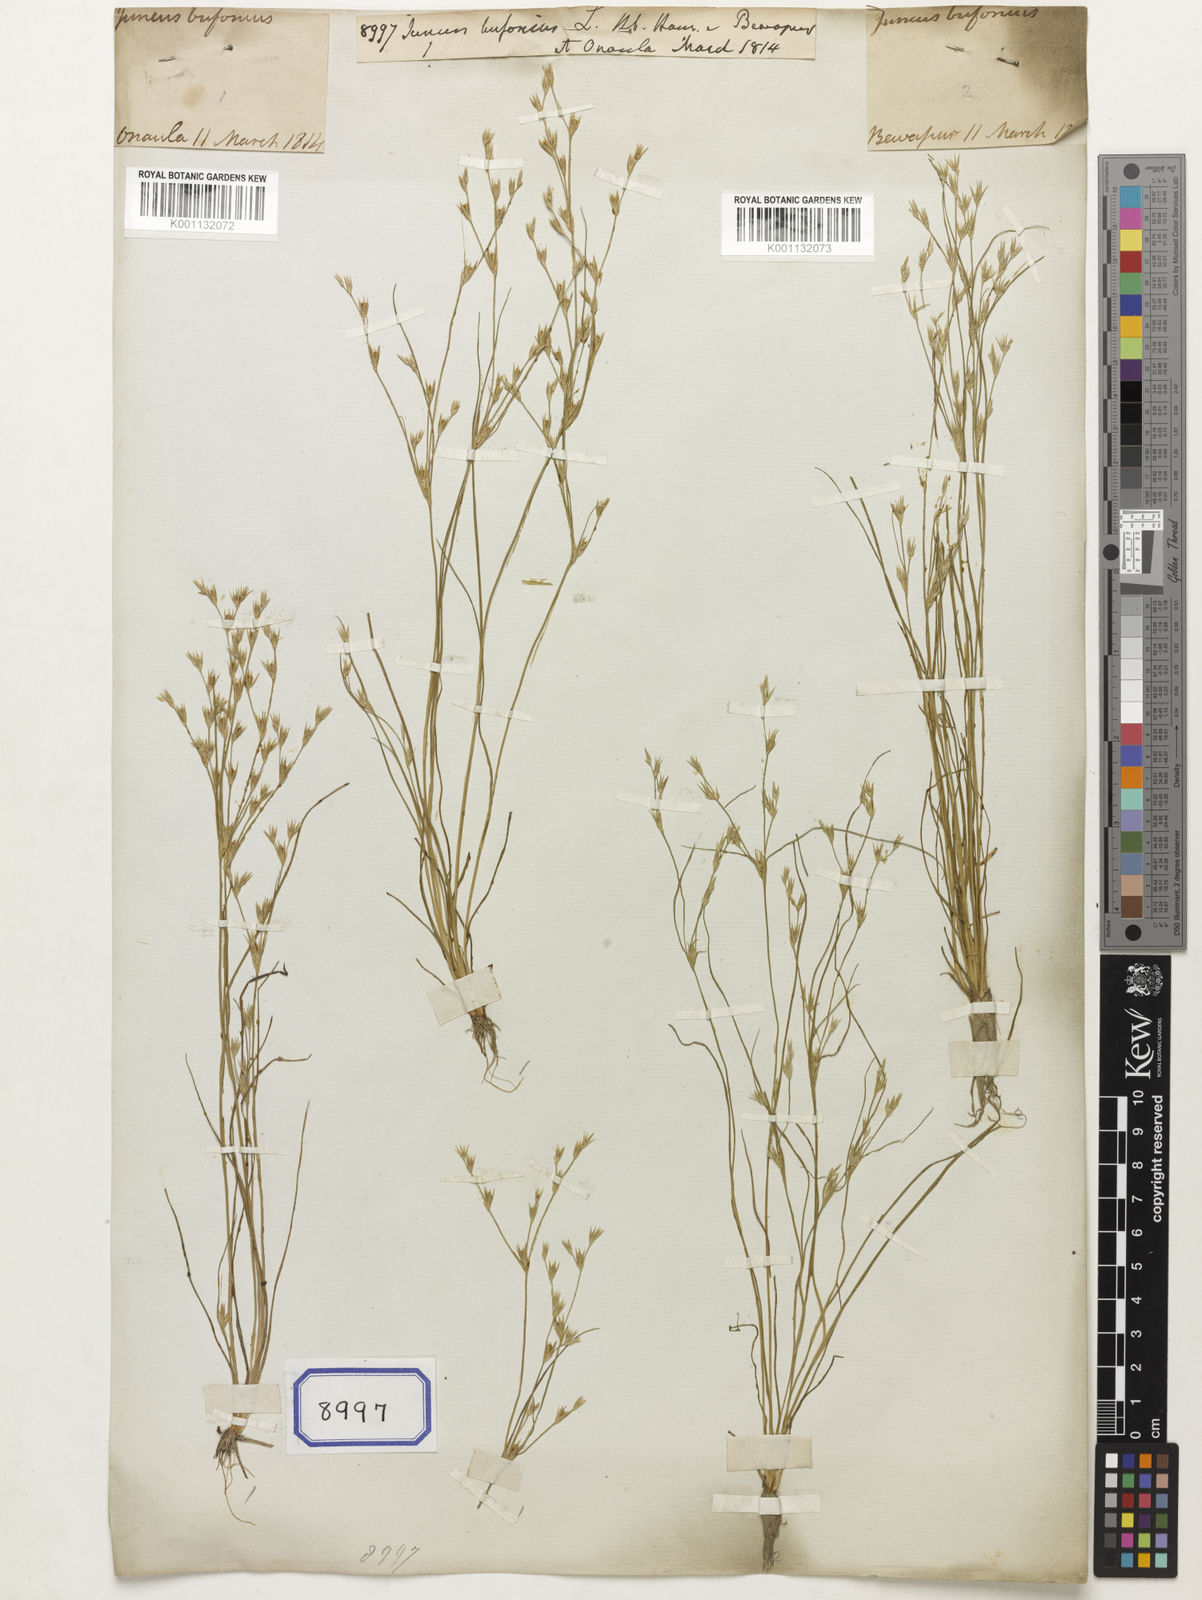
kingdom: Plantae
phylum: Tracheophyta
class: Liliopsida
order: Poales
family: Juncaceae
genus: Juncus
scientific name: Juncus bufonius
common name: Toad rush
